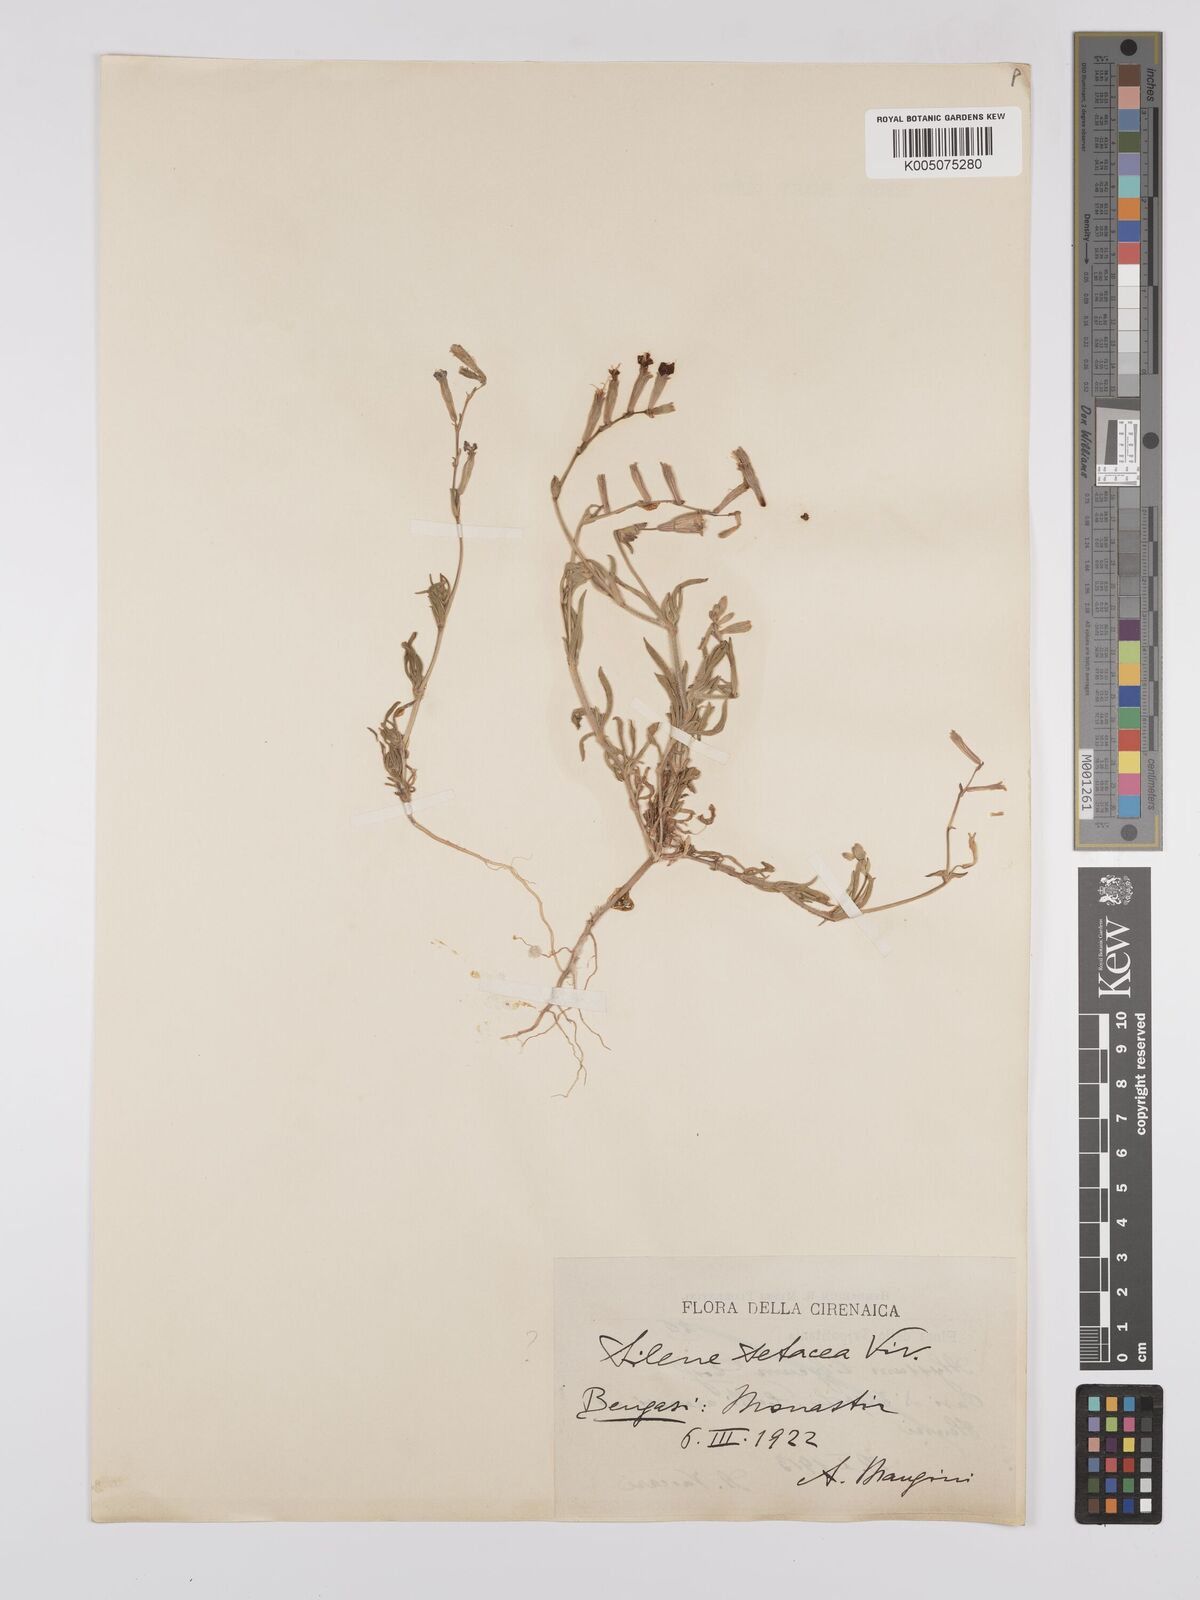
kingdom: Plantae
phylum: Tracheophyta
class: Magnoliopsida
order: Caryophyllales
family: Caryophyllaceae
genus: Silene
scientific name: Silene vivianii
